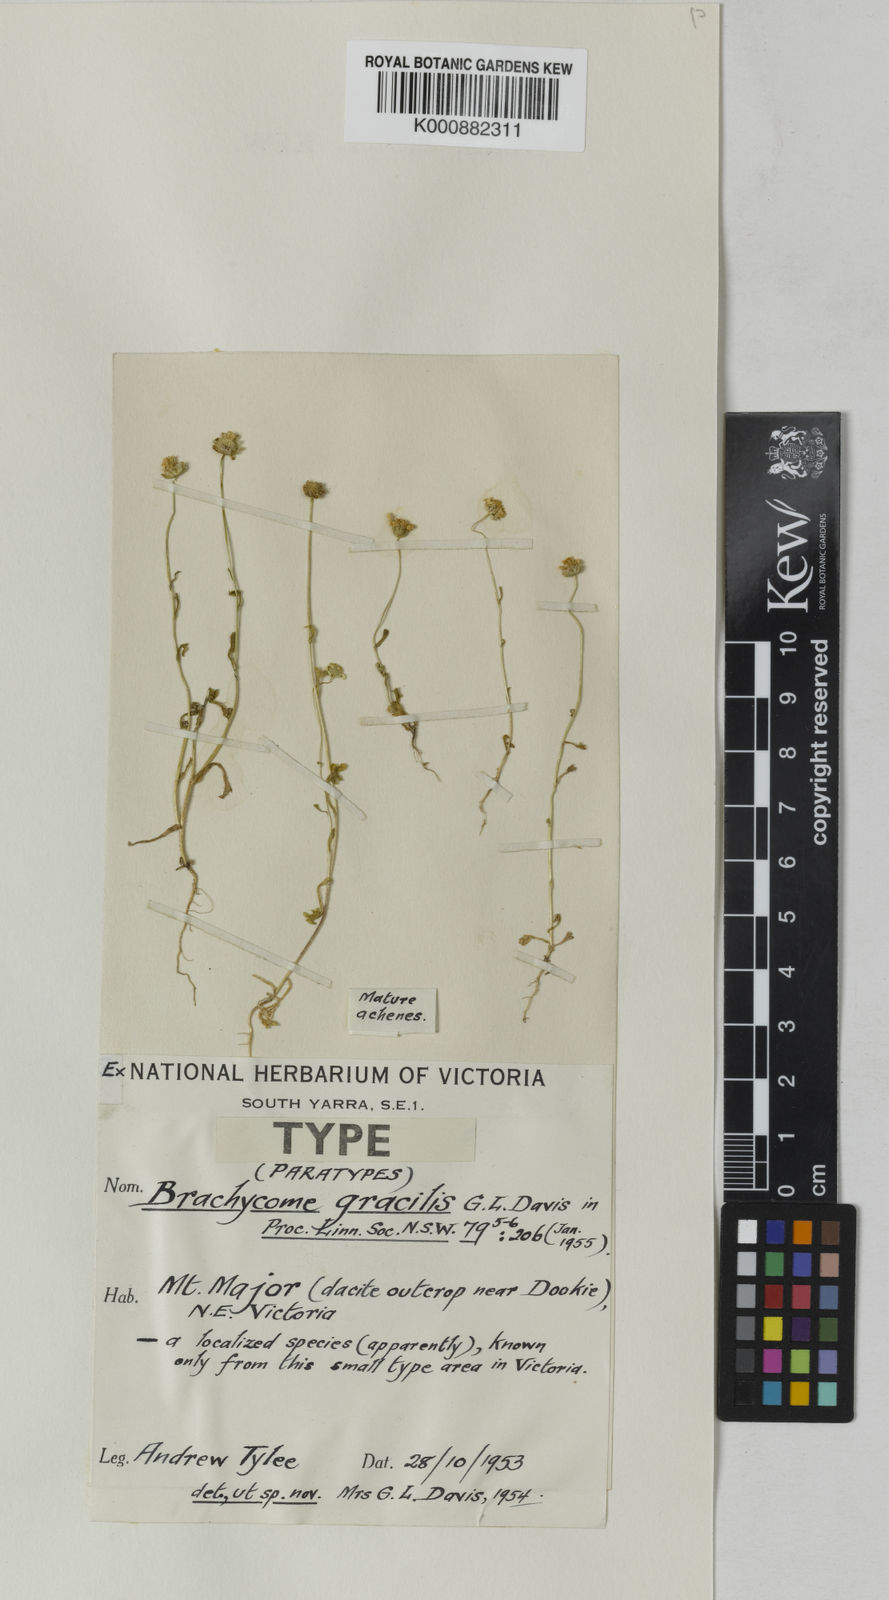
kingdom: Plantae
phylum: Tracheophyta
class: Magnoliopsida
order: Asterales
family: Asteraceae
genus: Brachyscome
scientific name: Brachyscome gracilis
